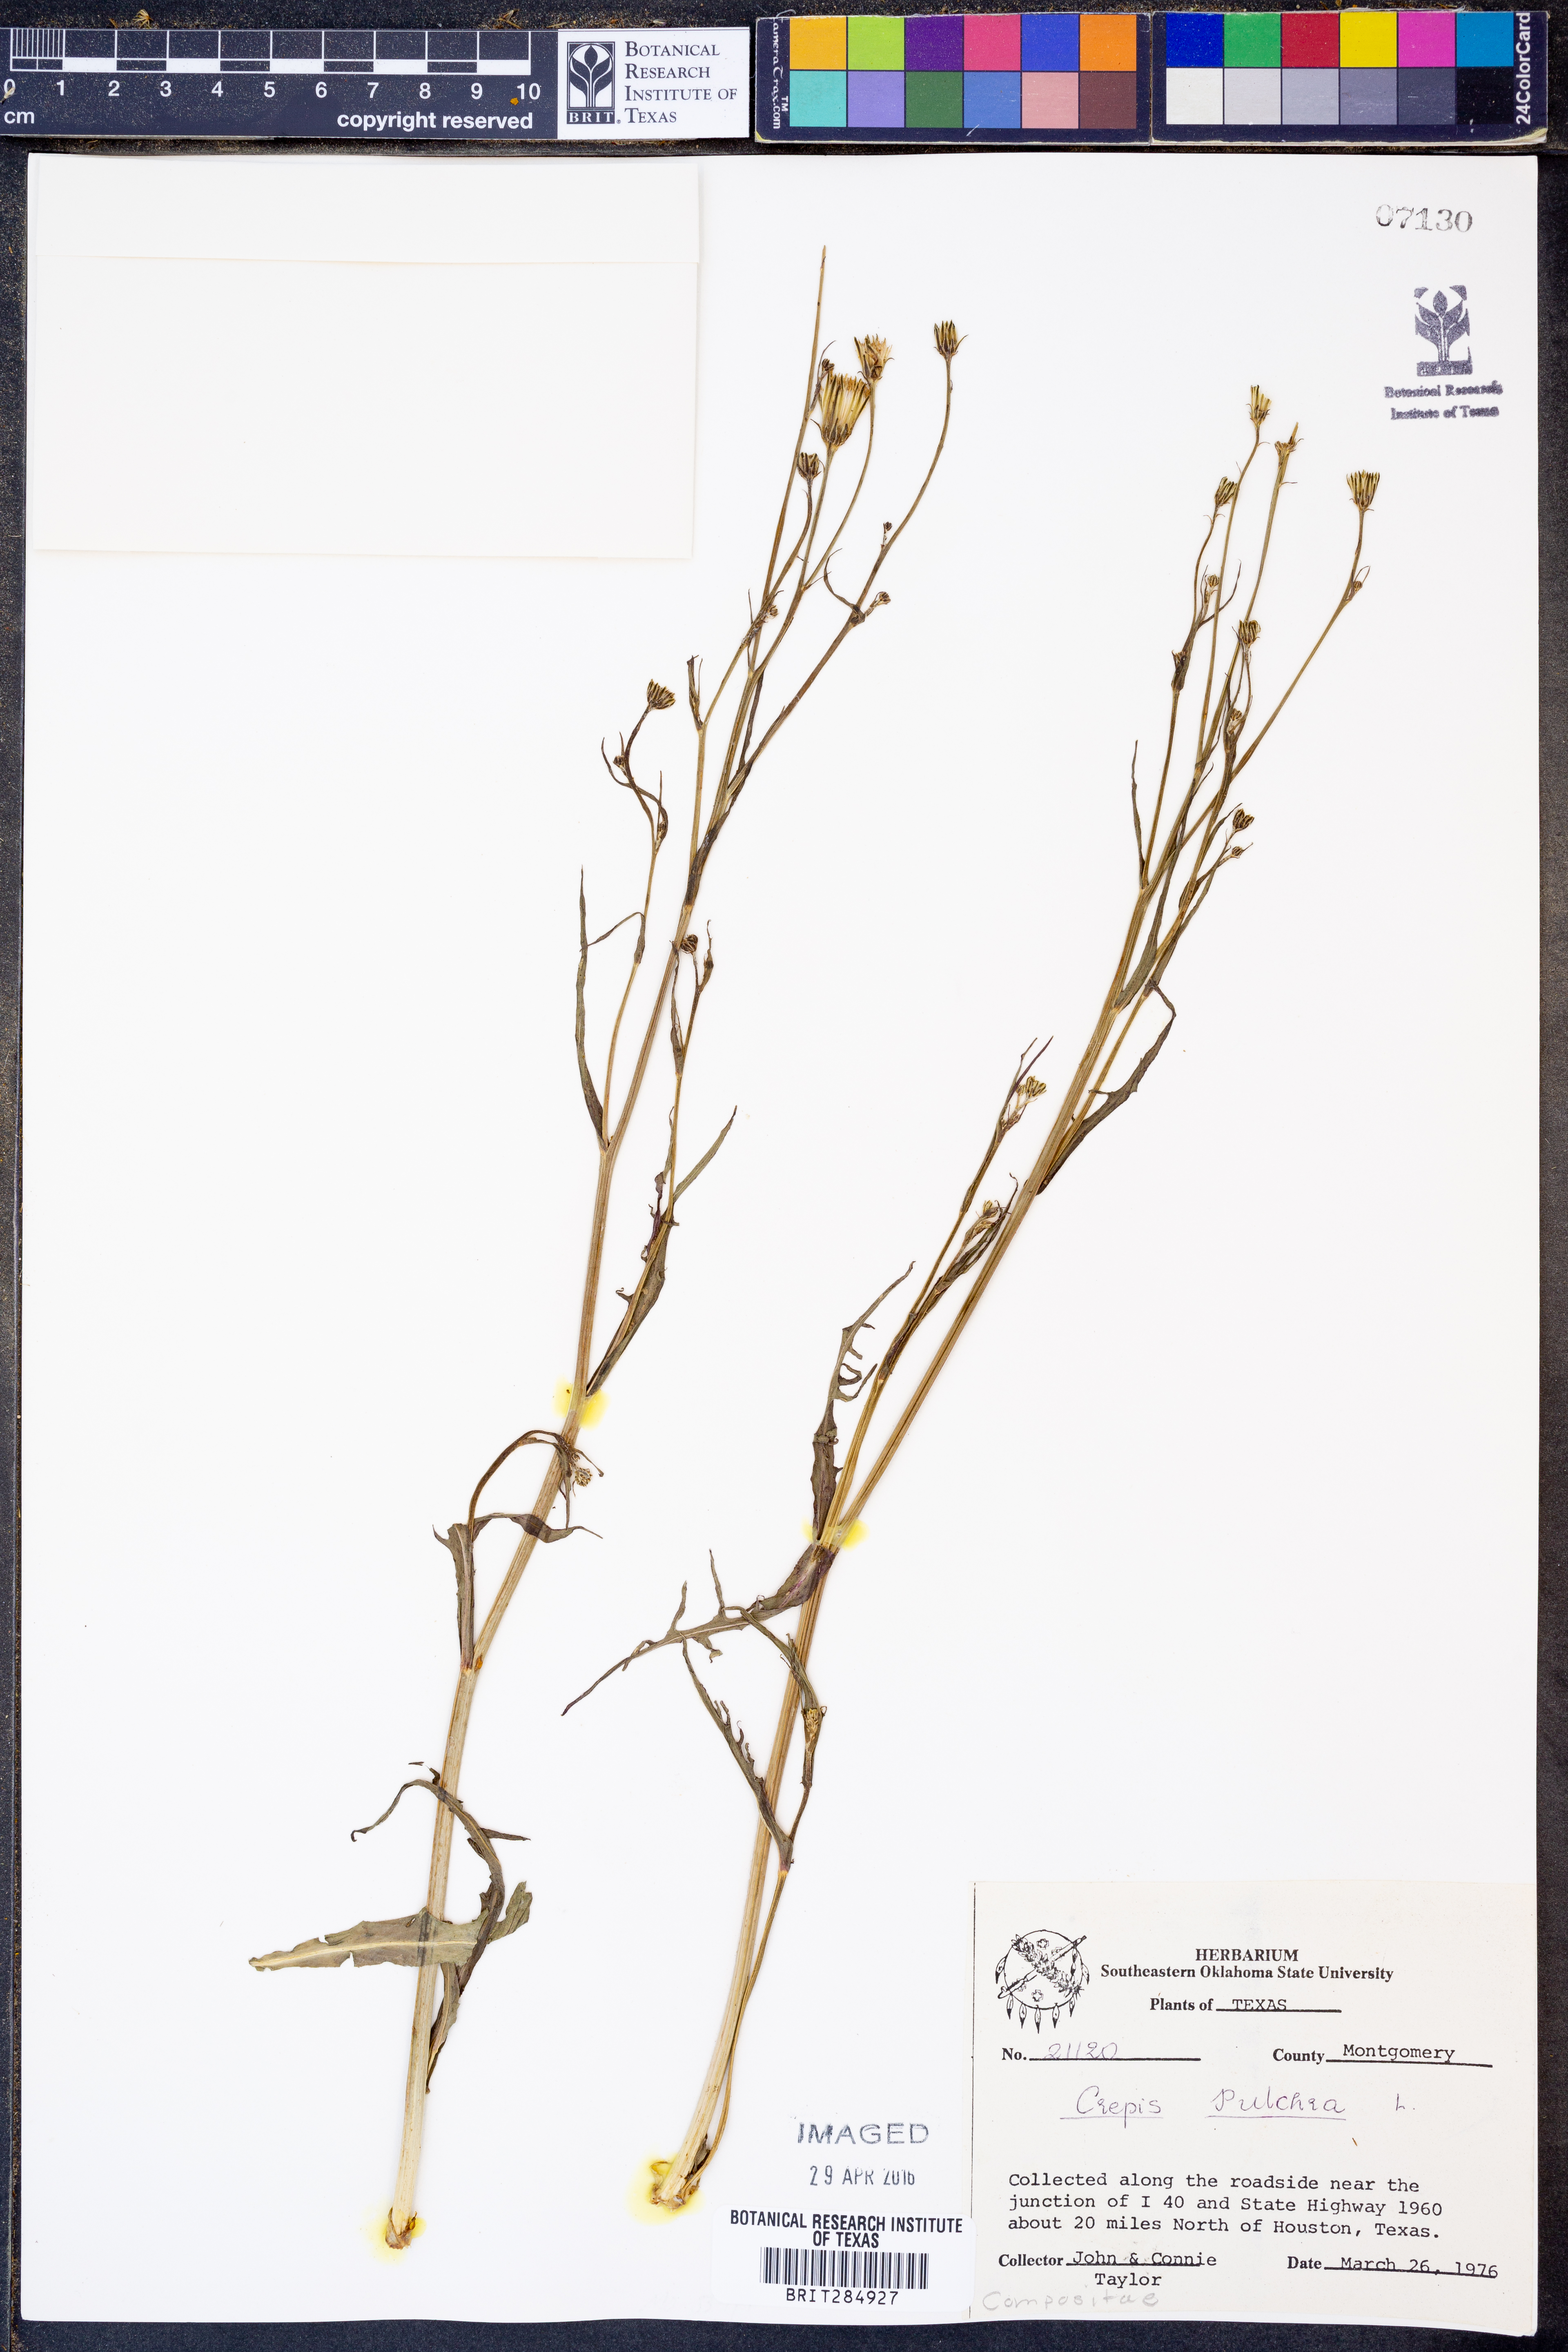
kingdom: Plantae
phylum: Tracheophyta
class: Magnoliopsida
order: Asterales
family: Asteraceae
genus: Crepis
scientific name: Crepis pulchra
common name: Hawk's-beard
